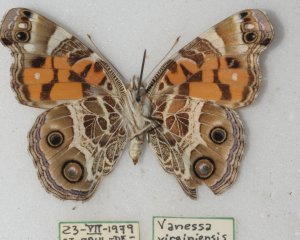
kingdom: Animalia
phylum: Arthropoda
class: Insecta
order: Lepidoptera
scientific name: Lepidoptera
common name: Butterflies
